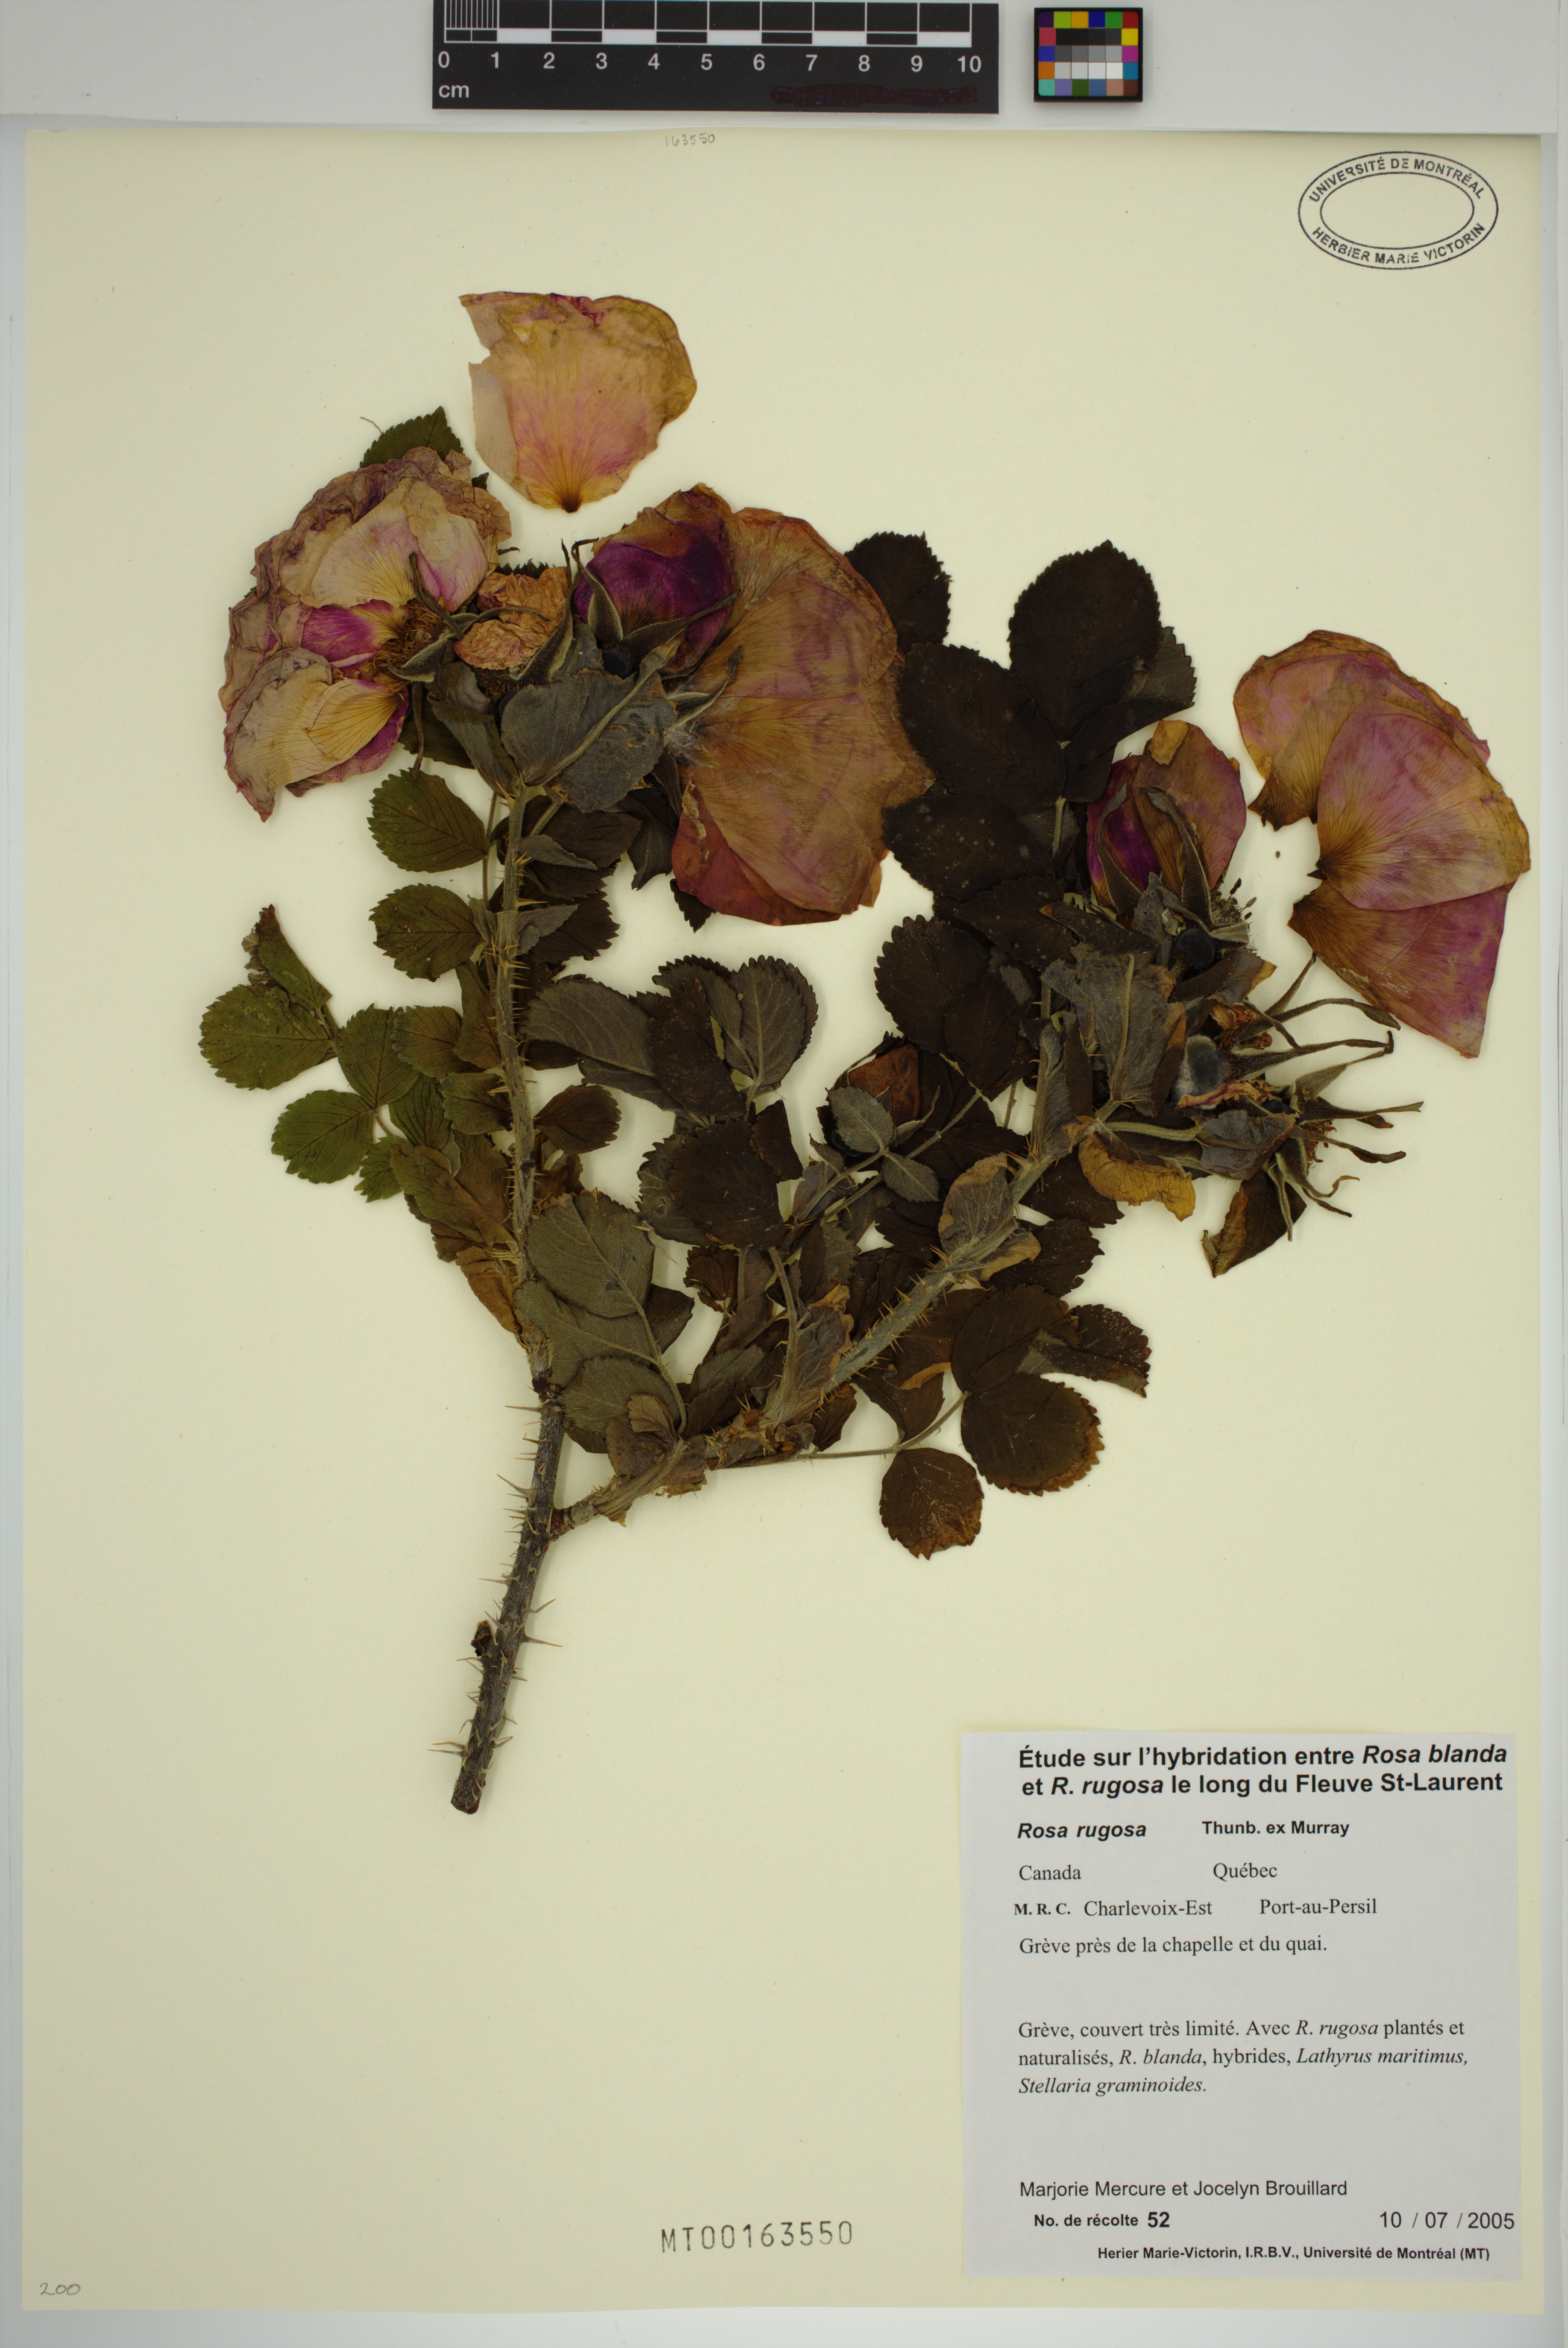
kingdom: Plantae
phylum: Tracheophyta
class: Magnoliopsida
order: Rosales
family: Rosaceae
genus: Rosa
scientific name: Rosa rugosa
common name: Japanese rose
